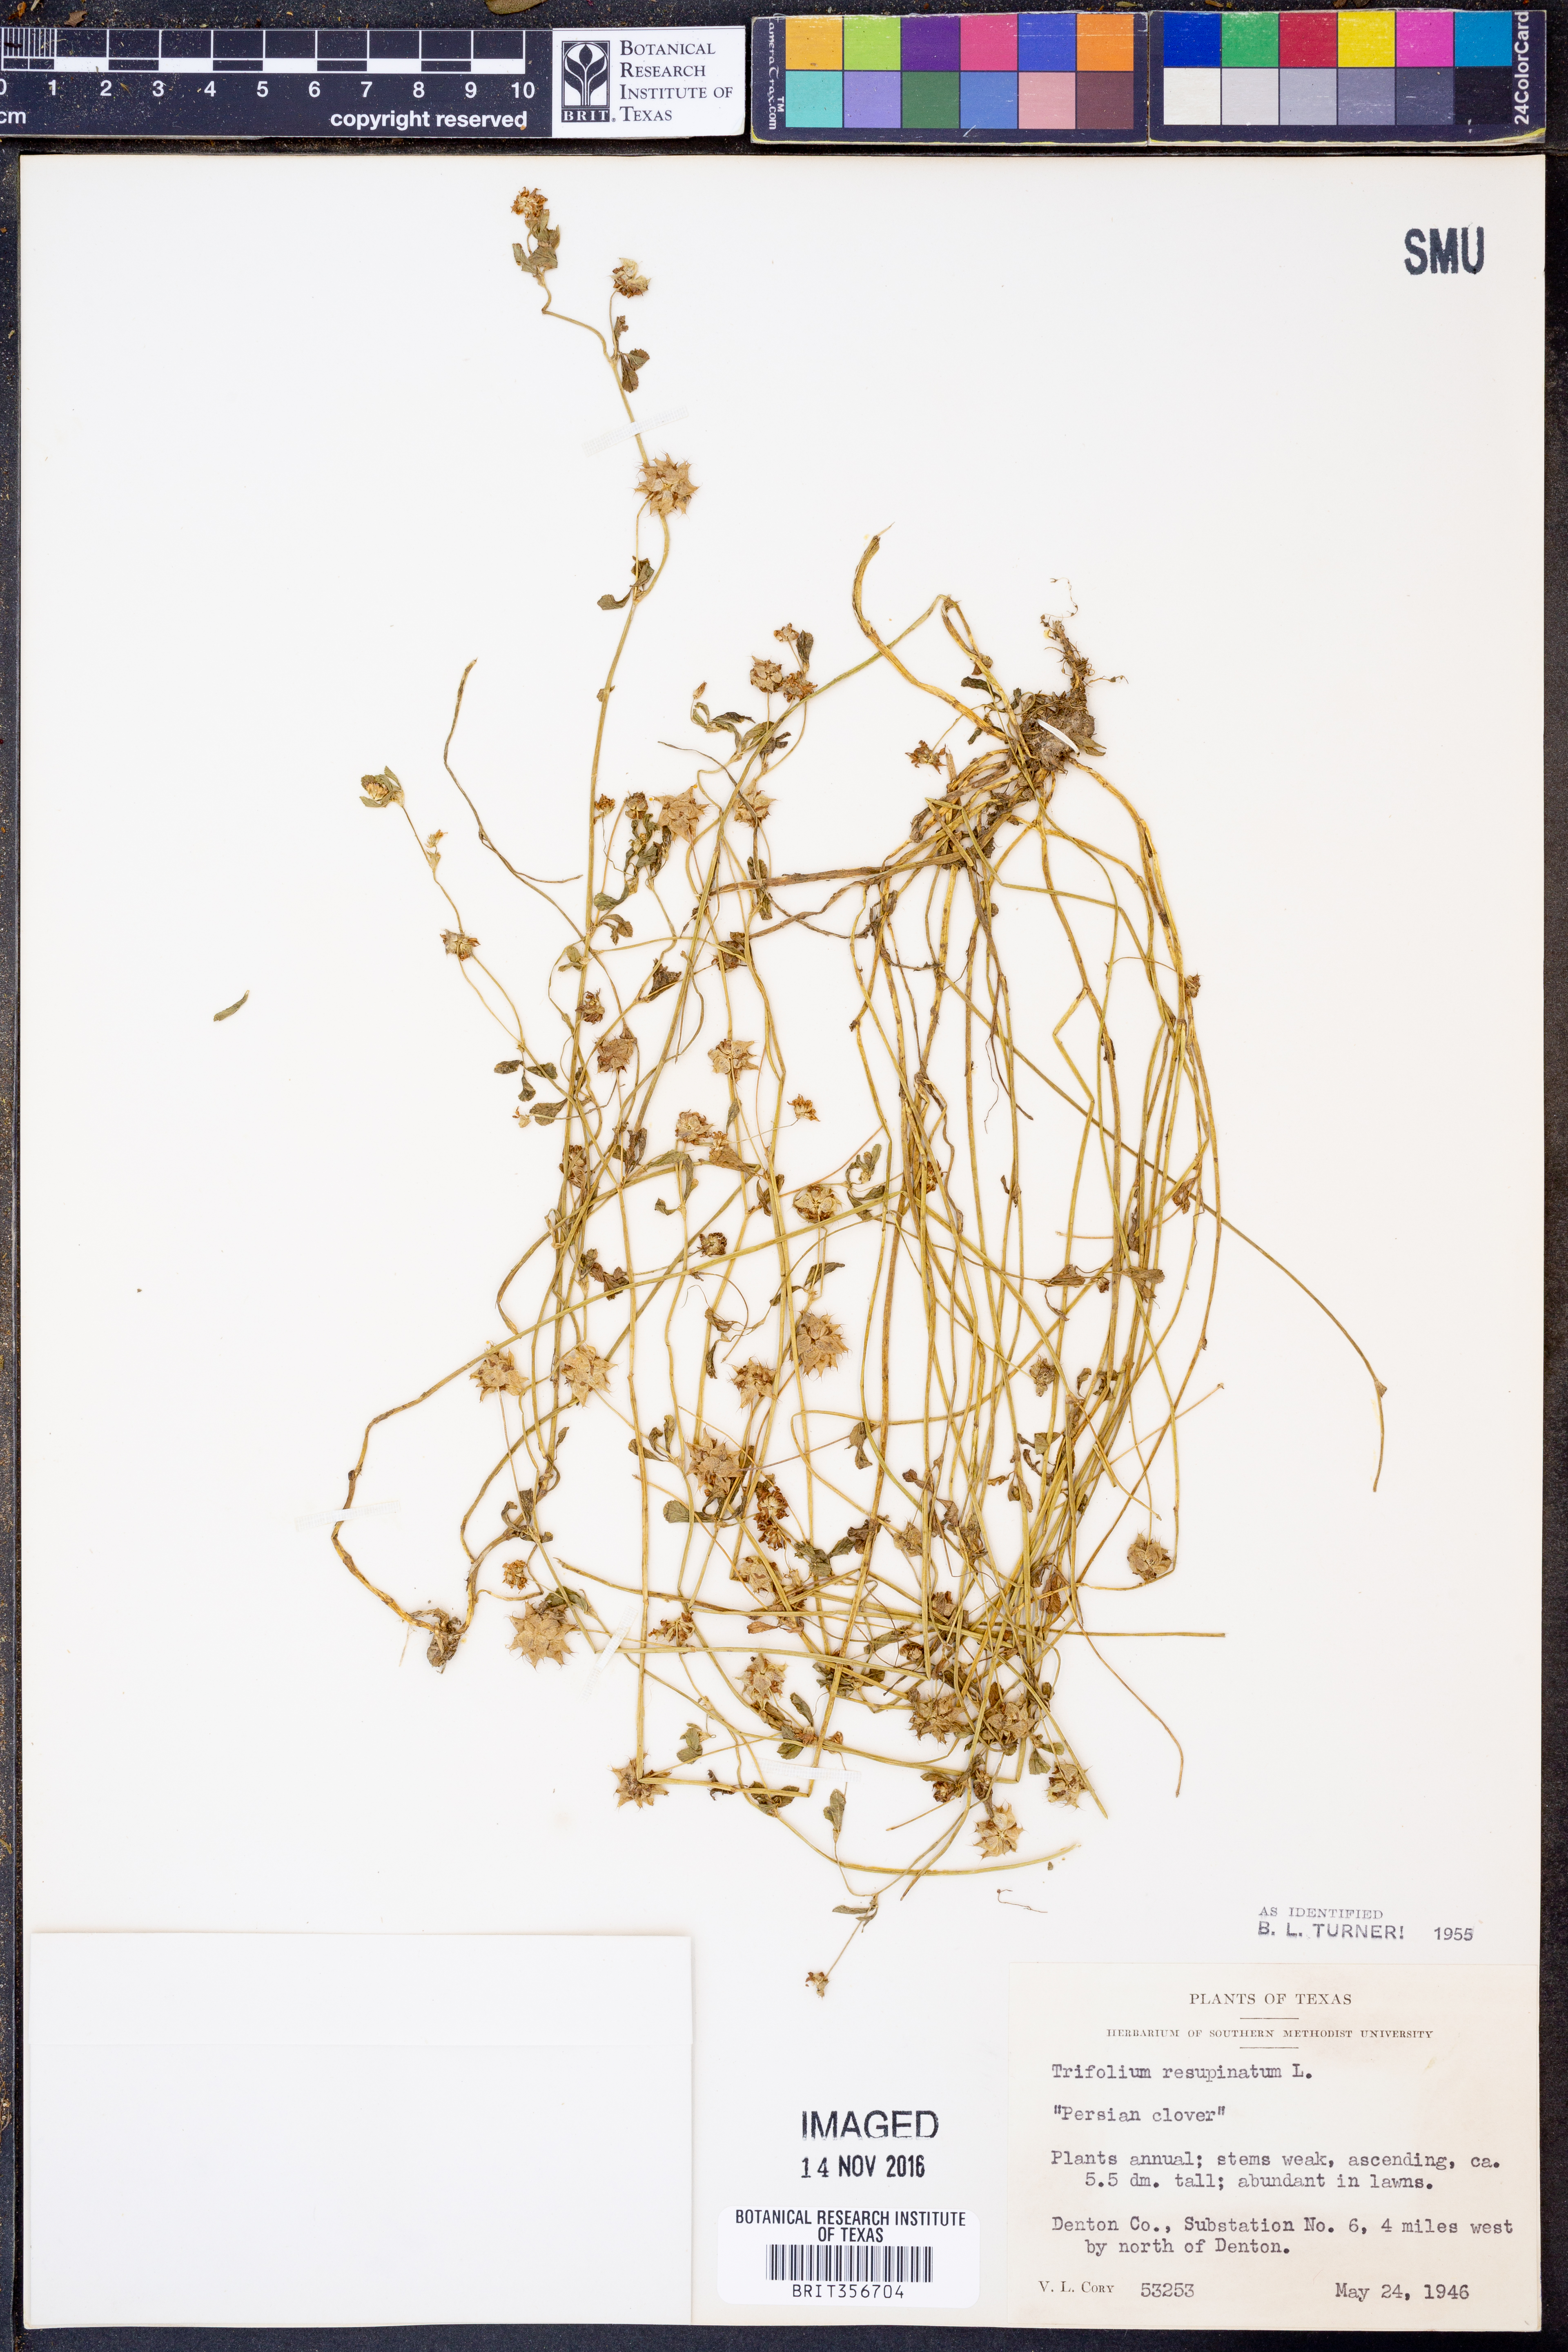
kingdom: Plantae
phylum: Tracheophyta
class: Magnoliopsida
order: Fabales
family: Fabaceae
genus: Trifolium
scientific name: Trifolium resupinatum
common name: Reversed clover
